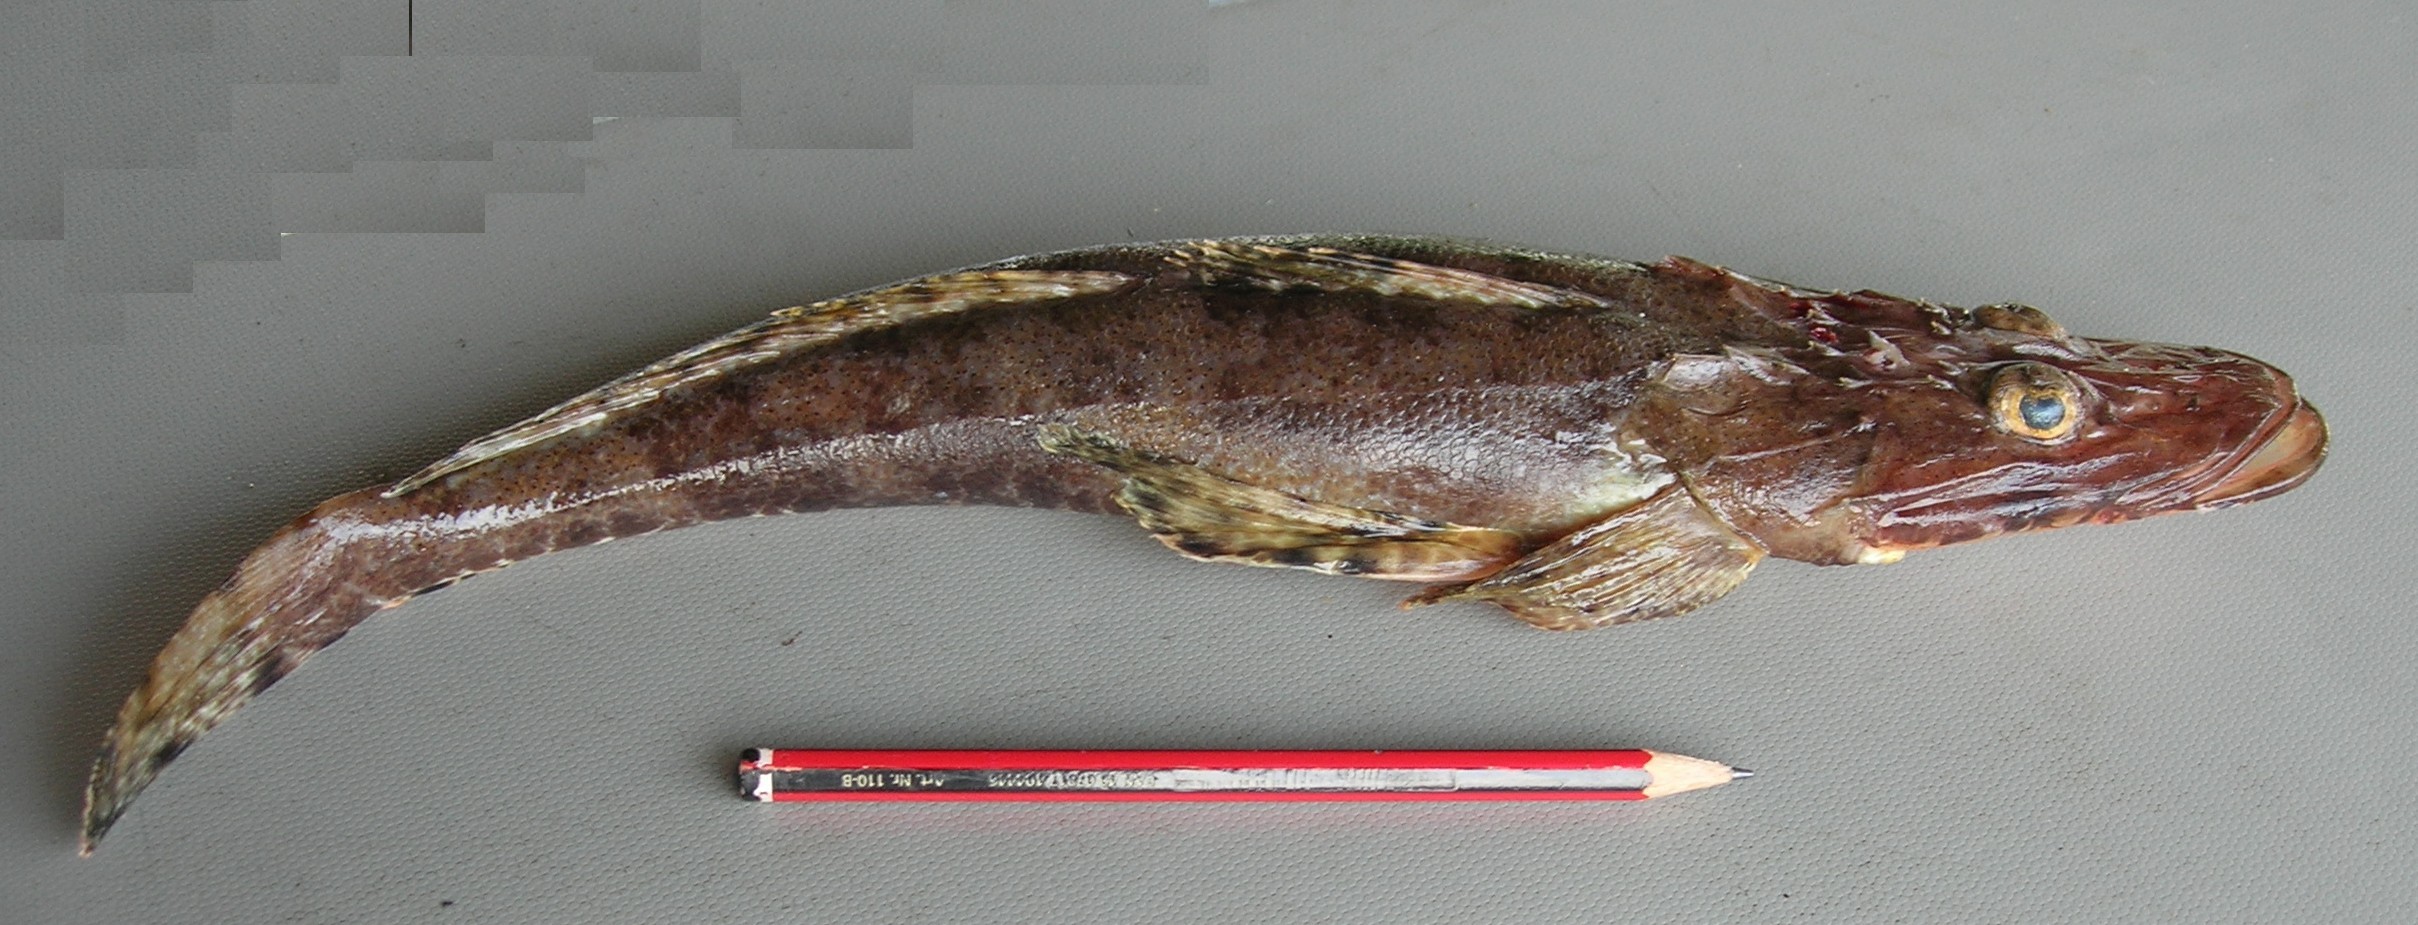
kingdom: Animalia
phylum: Chordata
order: Scorpaeniformes
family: Platycephalidae
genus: Papilloculiceps
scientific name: Papilloculiceps longiceps
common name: Tentacled flathead
